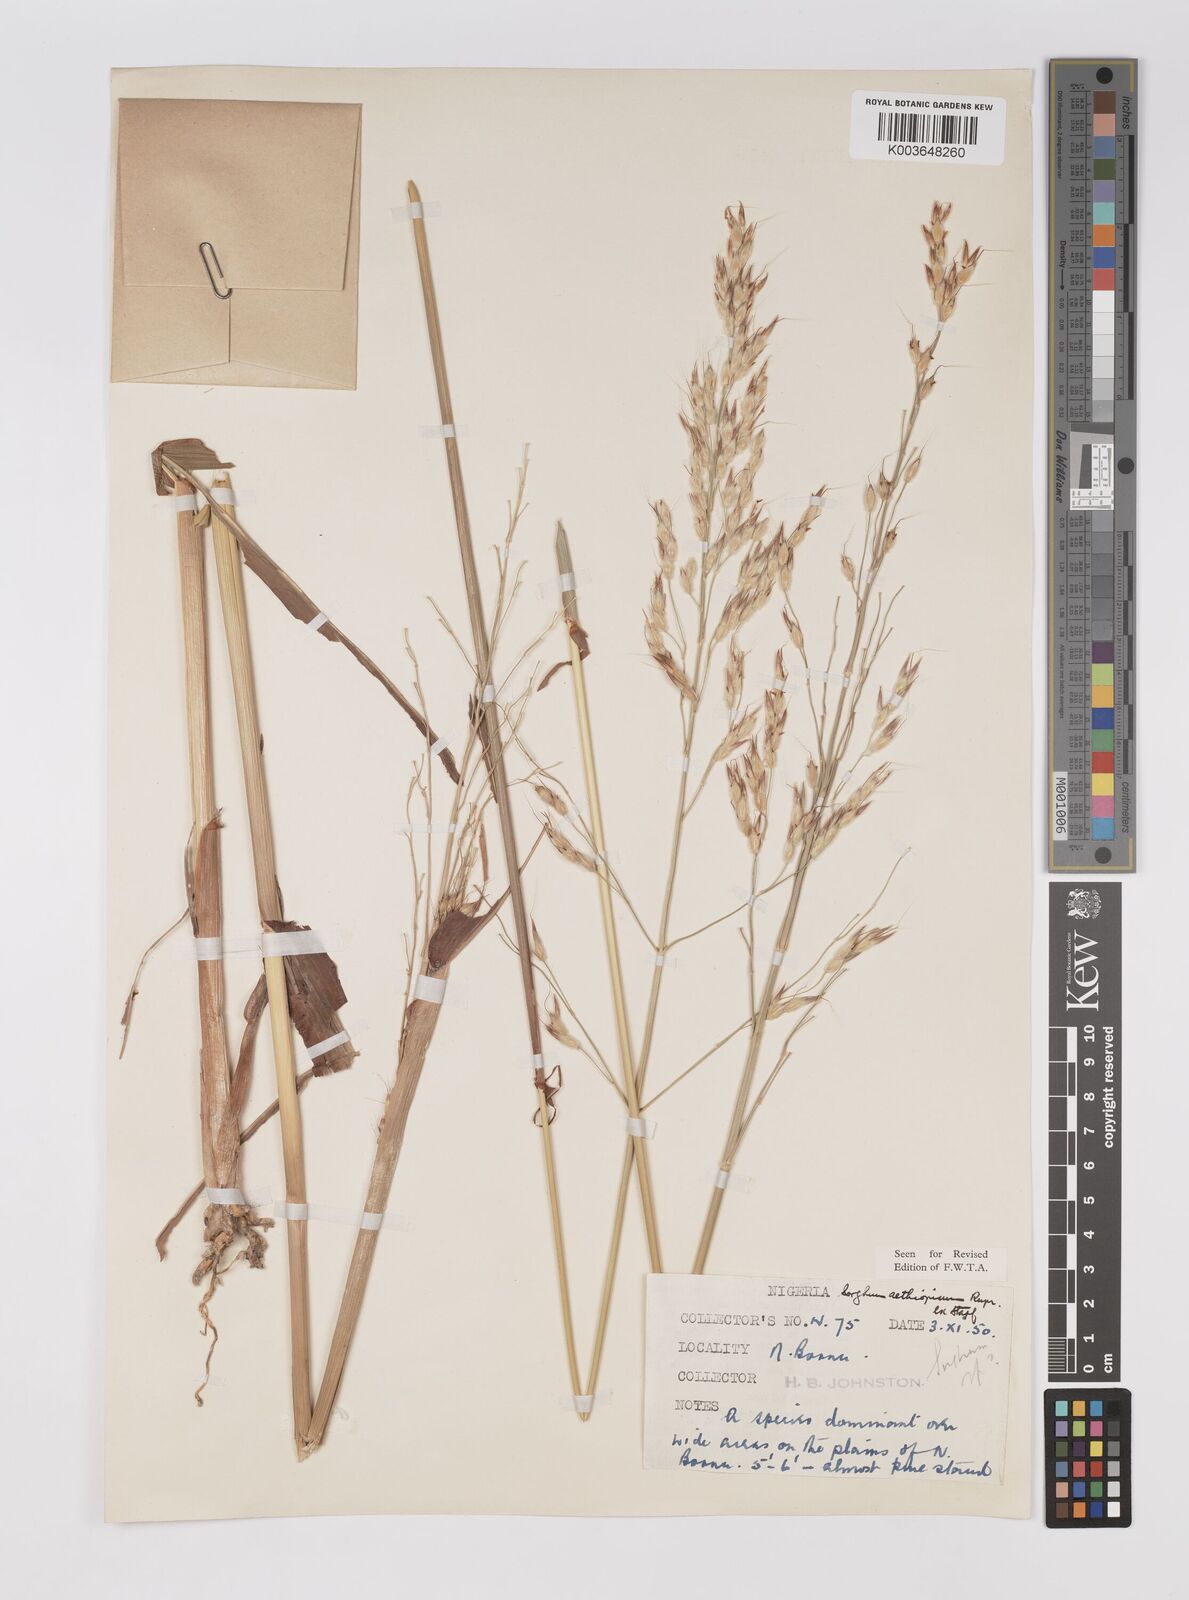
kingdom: Plantae
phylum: Tracheophyta
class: Liliopsida
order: Poales
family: Poaceae
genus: Sorghum
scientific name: Sorghum arundinaceum
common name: Sorghum
